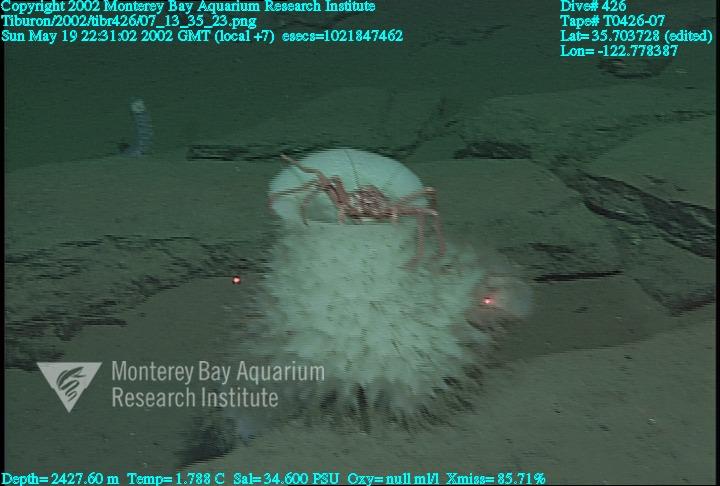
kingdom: Animalia
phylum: Porifera
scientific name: Porifera
